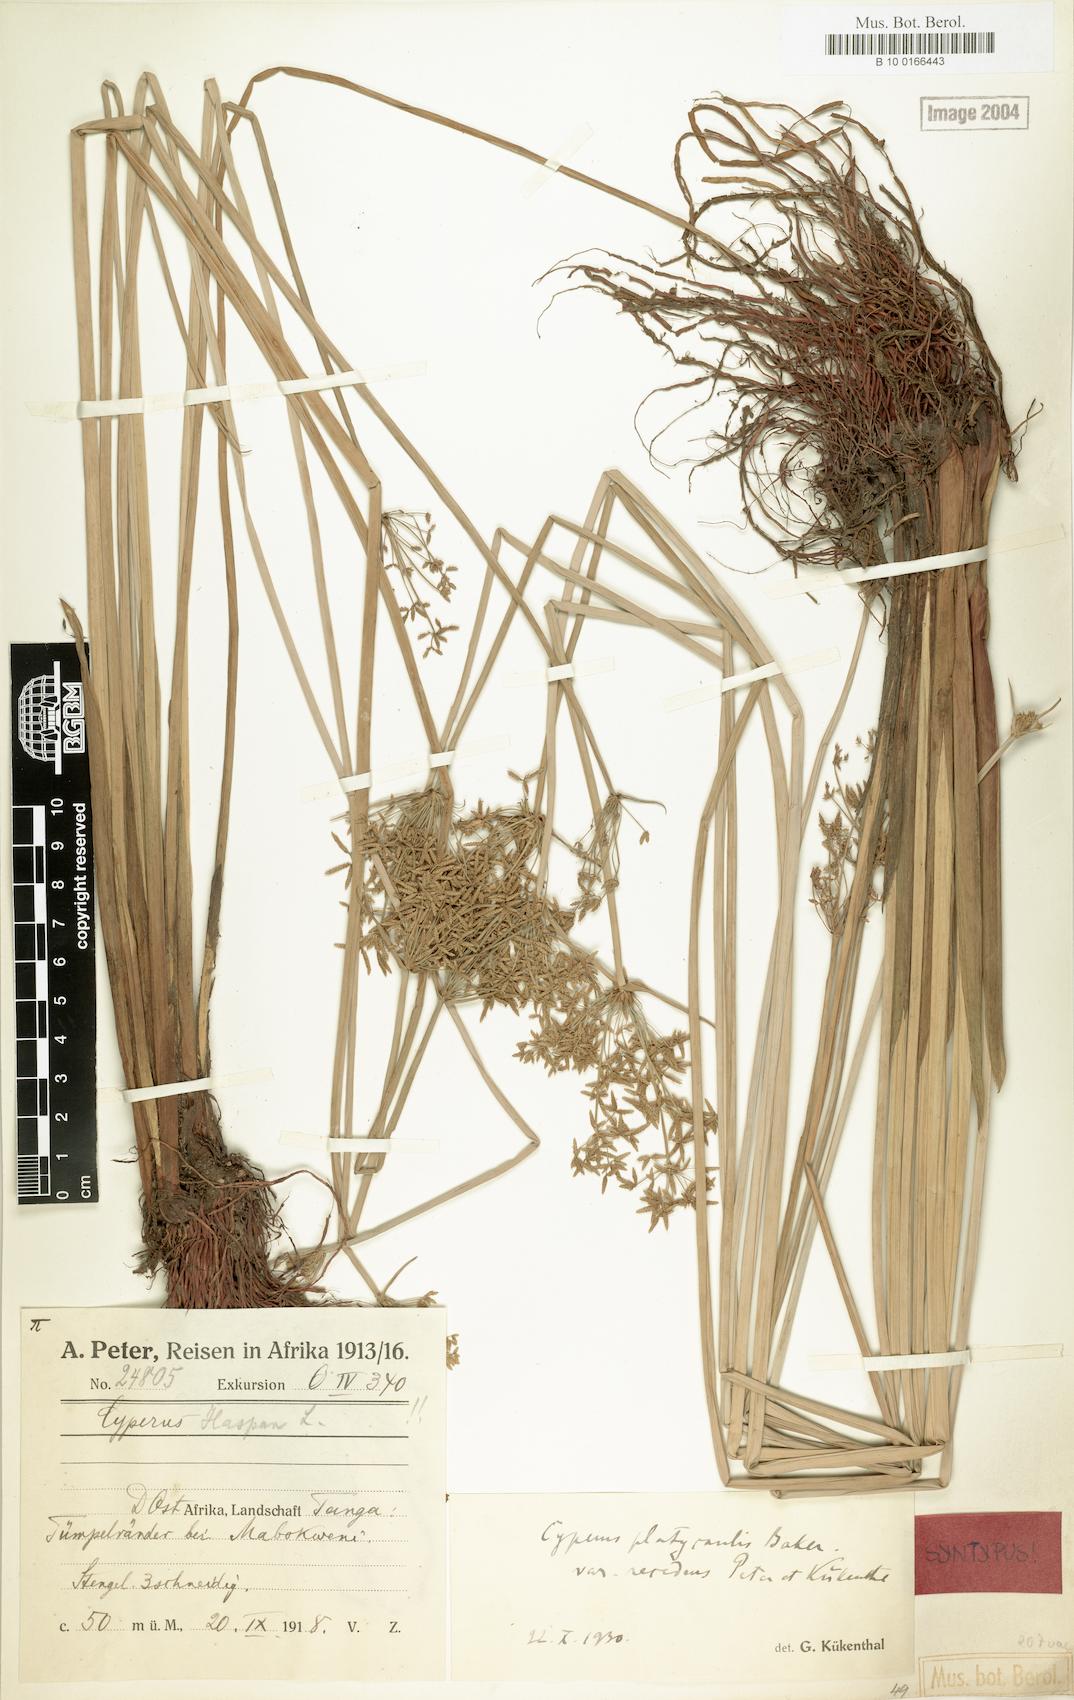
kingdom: Plantae
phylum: Tracheophyta
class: Liliopsida
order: Poales
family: Cyperaceae
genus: Cyperus
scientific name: Cyperus denudatus
